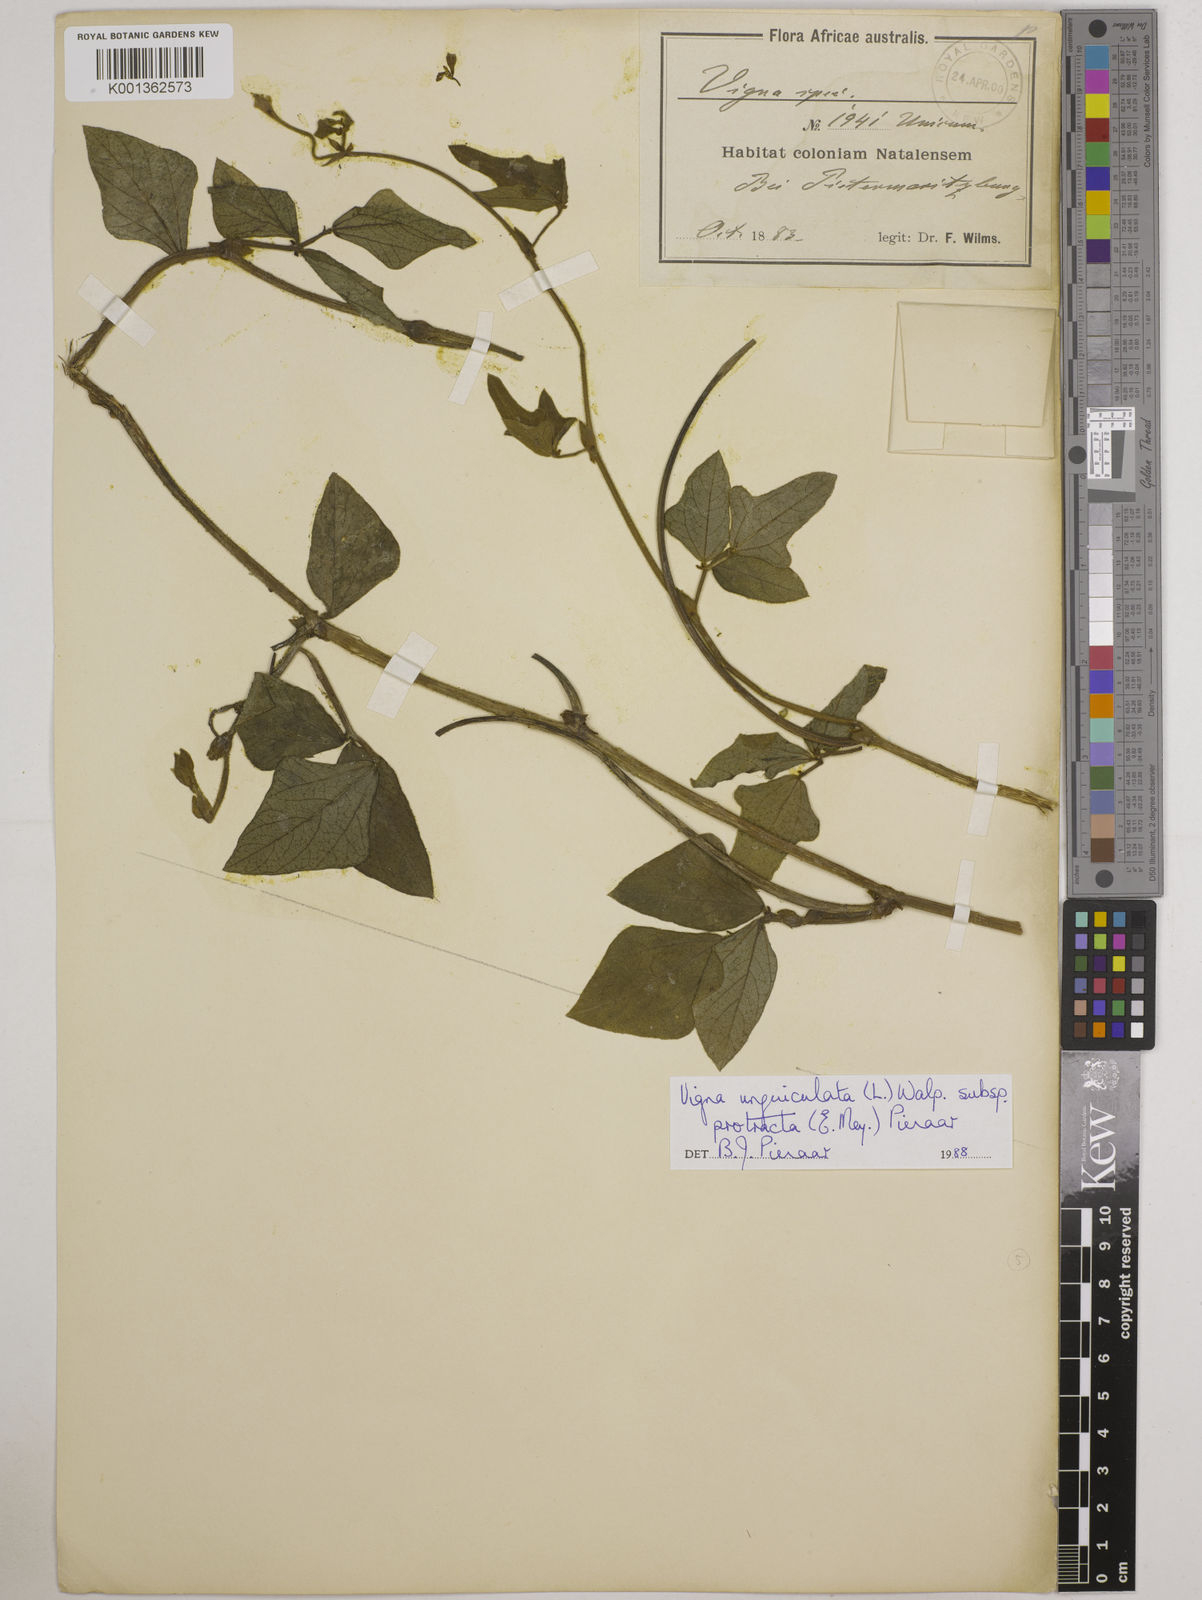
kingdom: Plantae
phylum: Tracheophyta
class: Magnoliopsida
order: Fabales
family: Fabaceae
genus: Vigna
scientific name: Vigna unguiculata
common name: Cowpea
